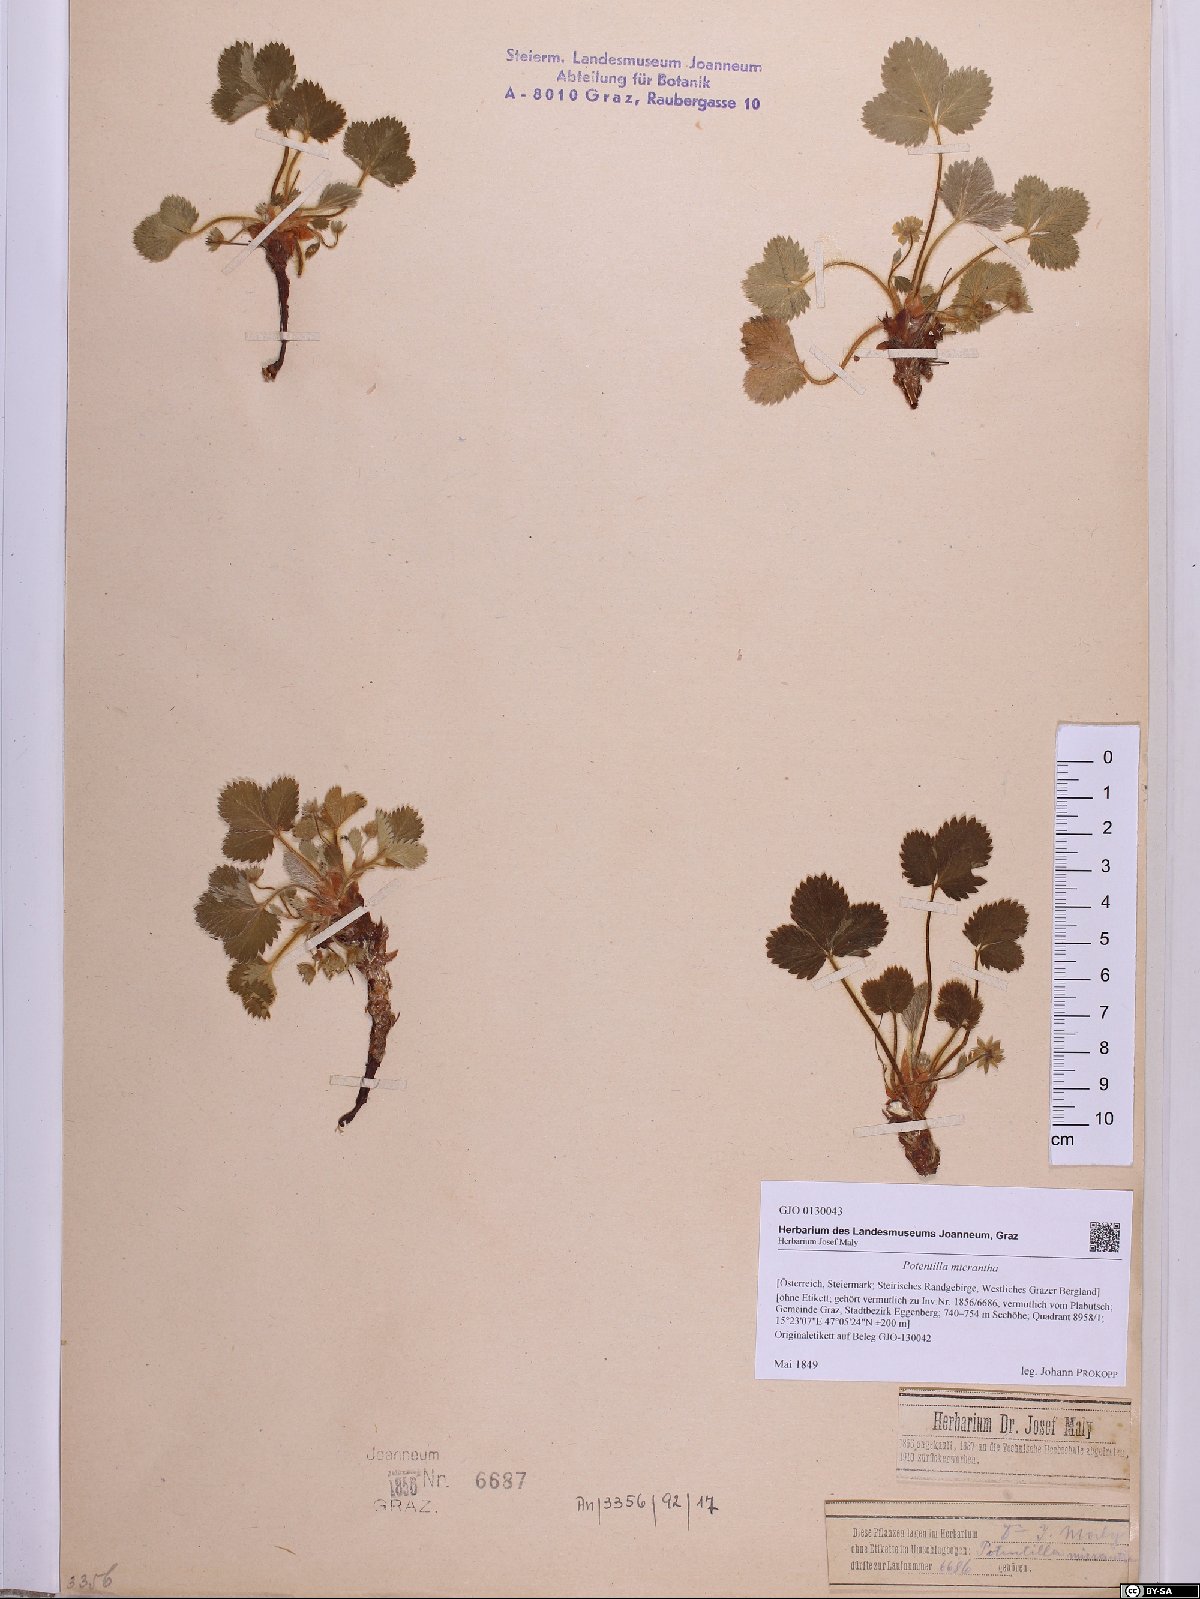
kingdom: Plantae
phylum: Tracheophyta
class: Magnoliopsida
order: Rosales
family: Rosaceae
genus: Potentilla
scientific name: Potentilla micrantha
